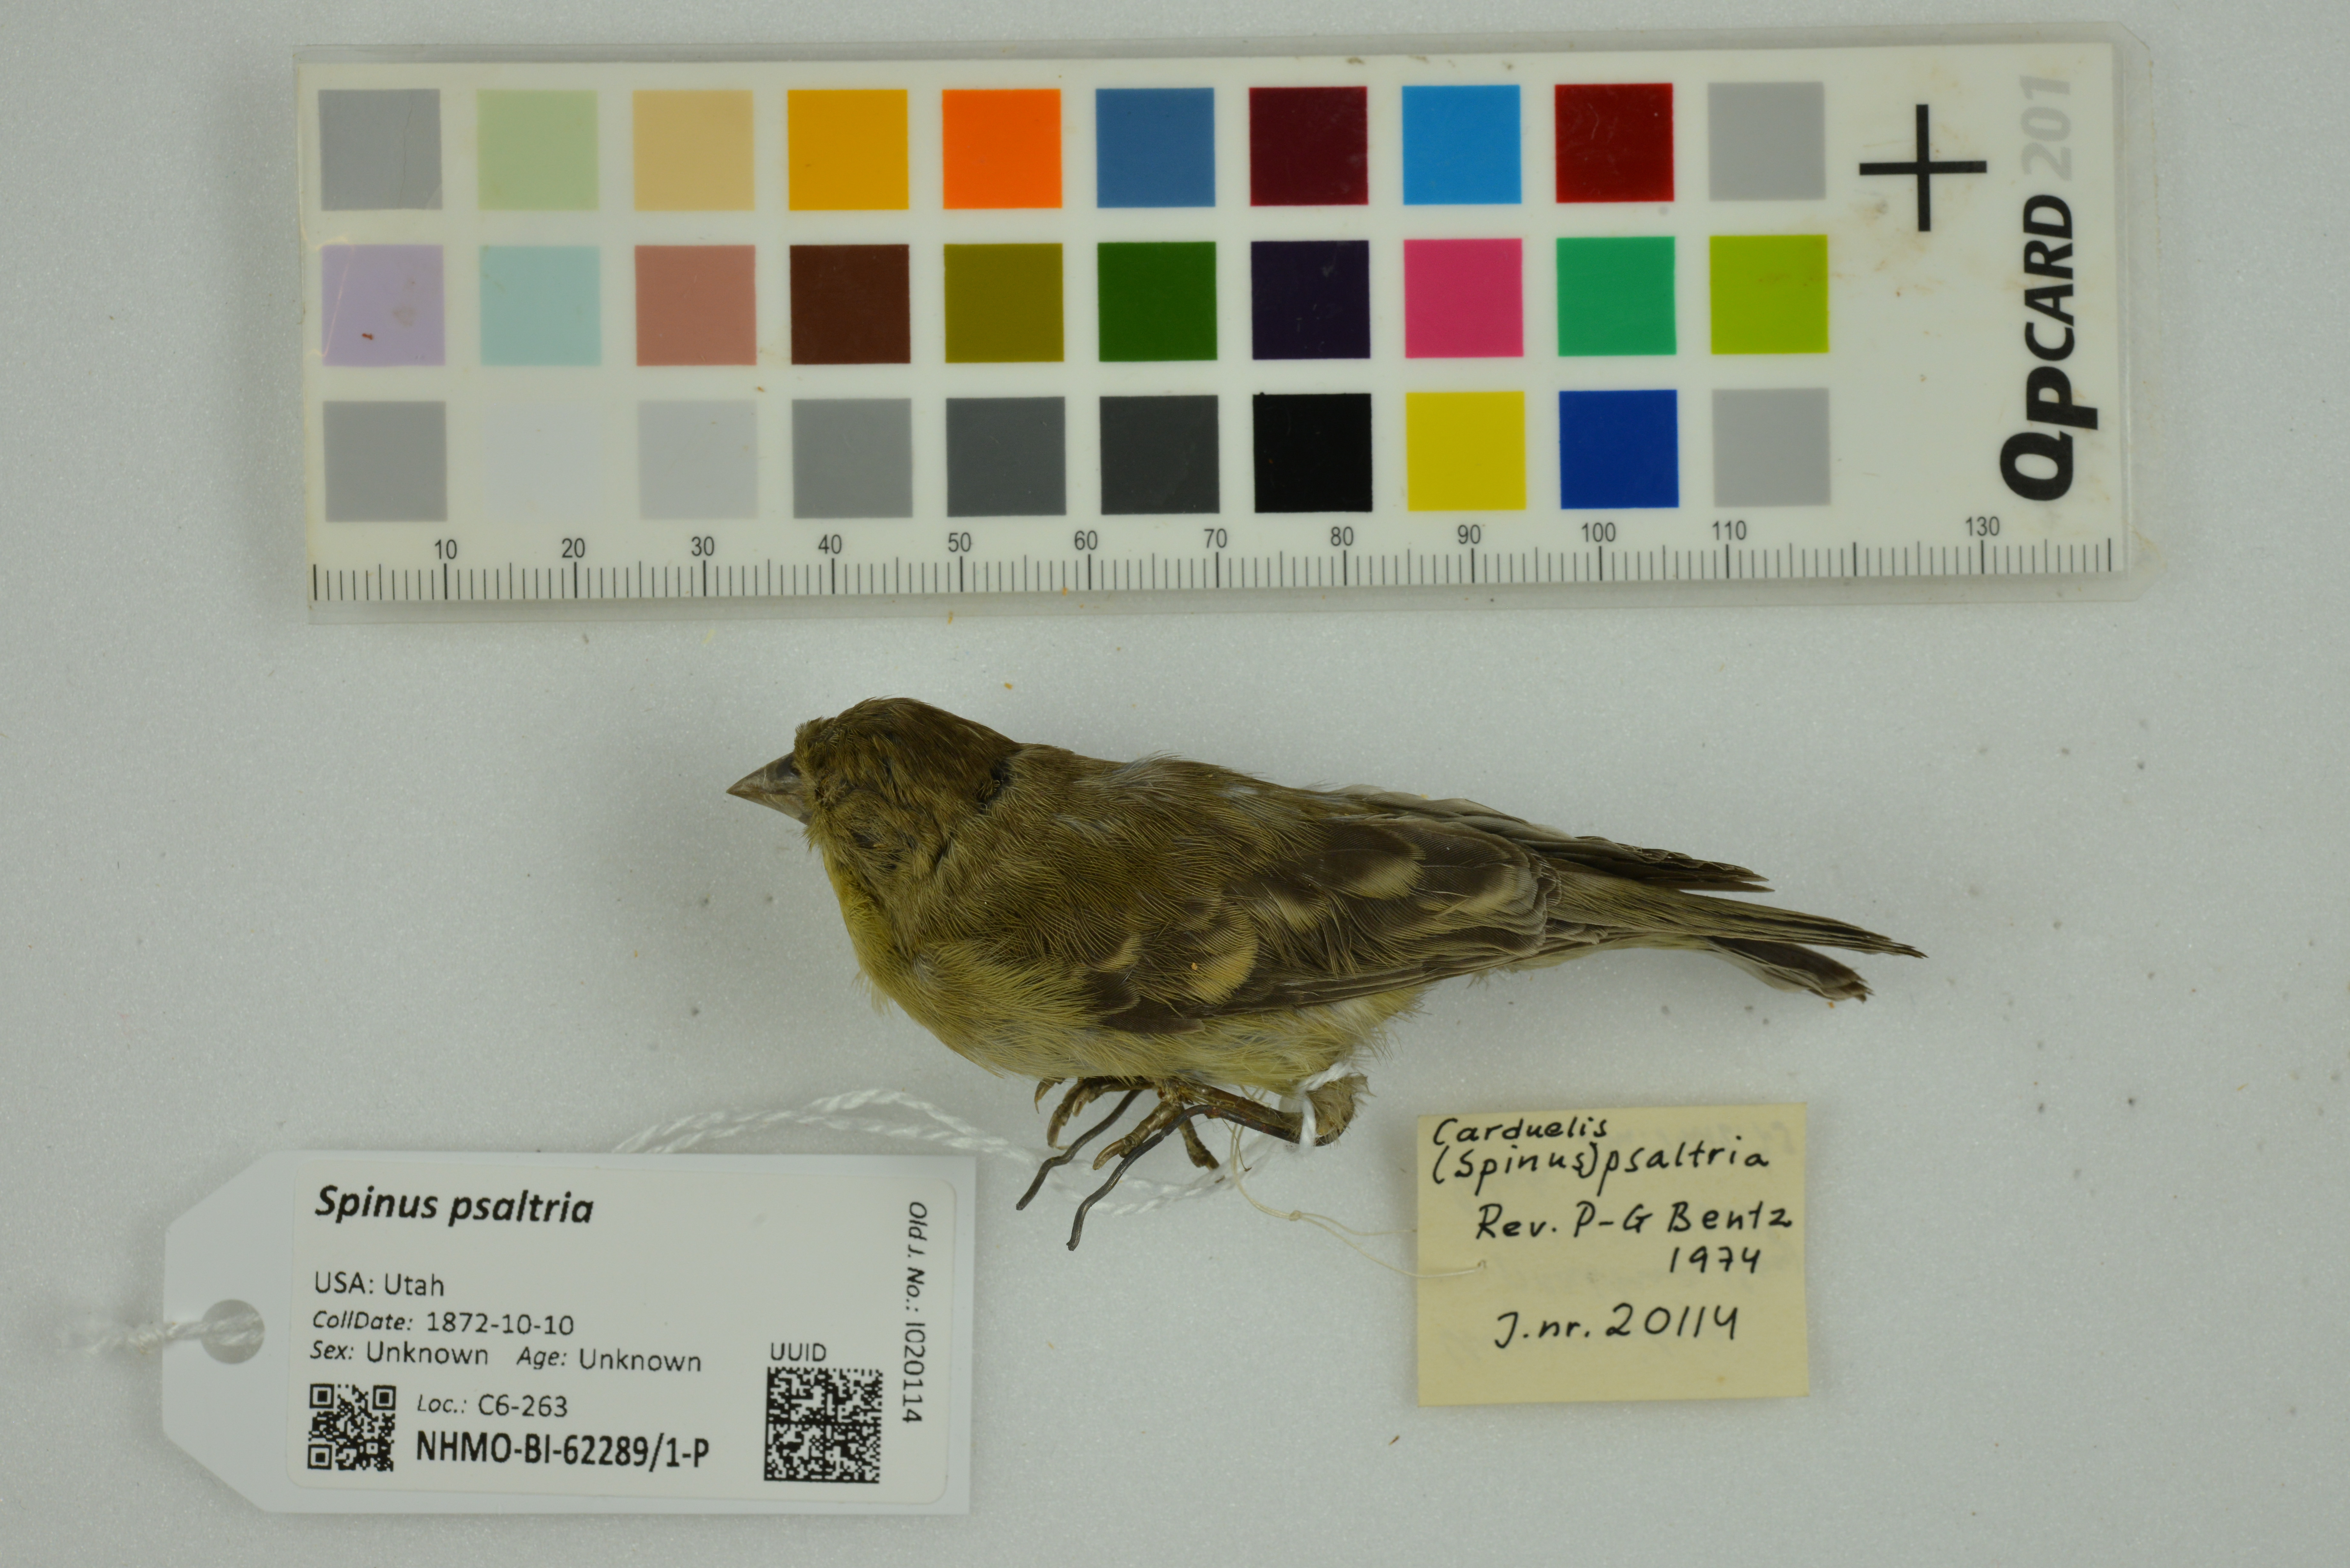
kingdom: Animalia
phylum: Chordata
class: Aves
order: Passeriformes
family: Fringillidae
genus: Spinus
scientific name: Spinus psaltria
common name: Lesser goldfinch
